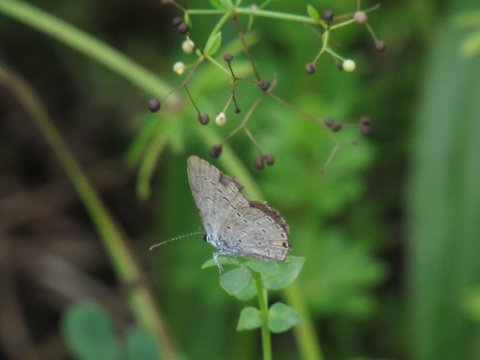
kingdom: Animalia
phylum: Arthropoda
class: Insecta
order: Lepidoptera
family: Lycaenidae
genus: Elkalyce
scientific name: Elkalyce comyntas
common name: Eastern Tailed-Blue
